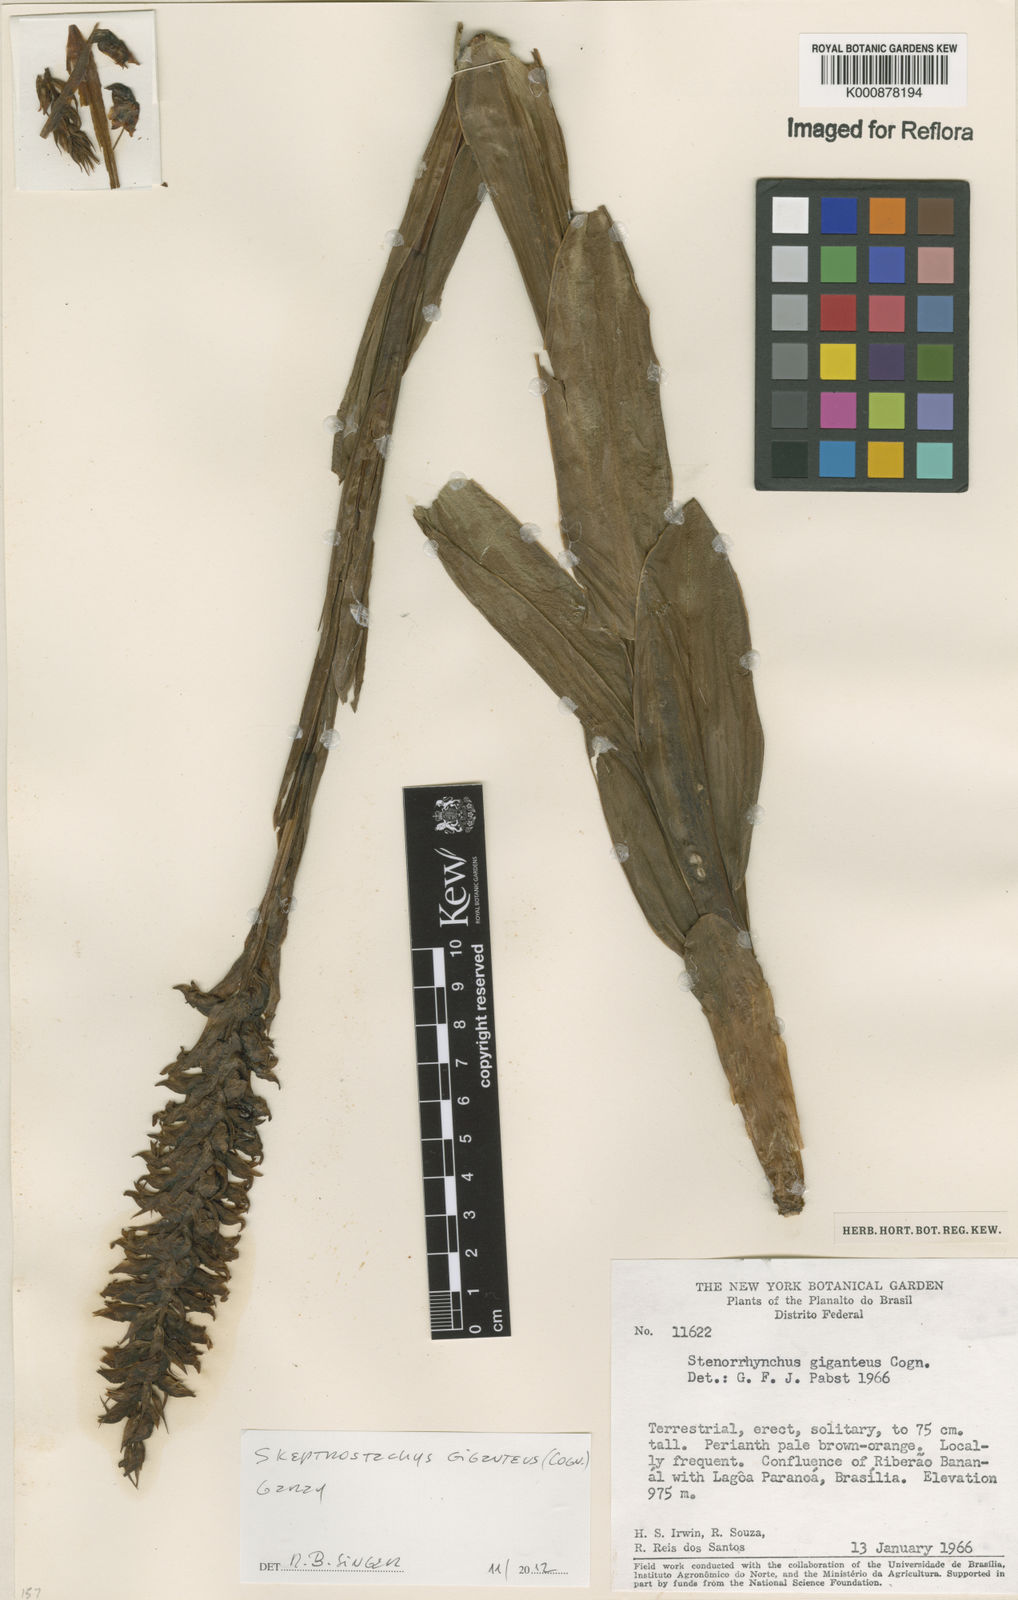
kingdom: Plantae
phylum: Tracheophyta
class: Liliopsida
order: Asparagales
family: Orchidaceae
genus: Skeptrostachys
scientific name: Skeptrostachys gigantea
